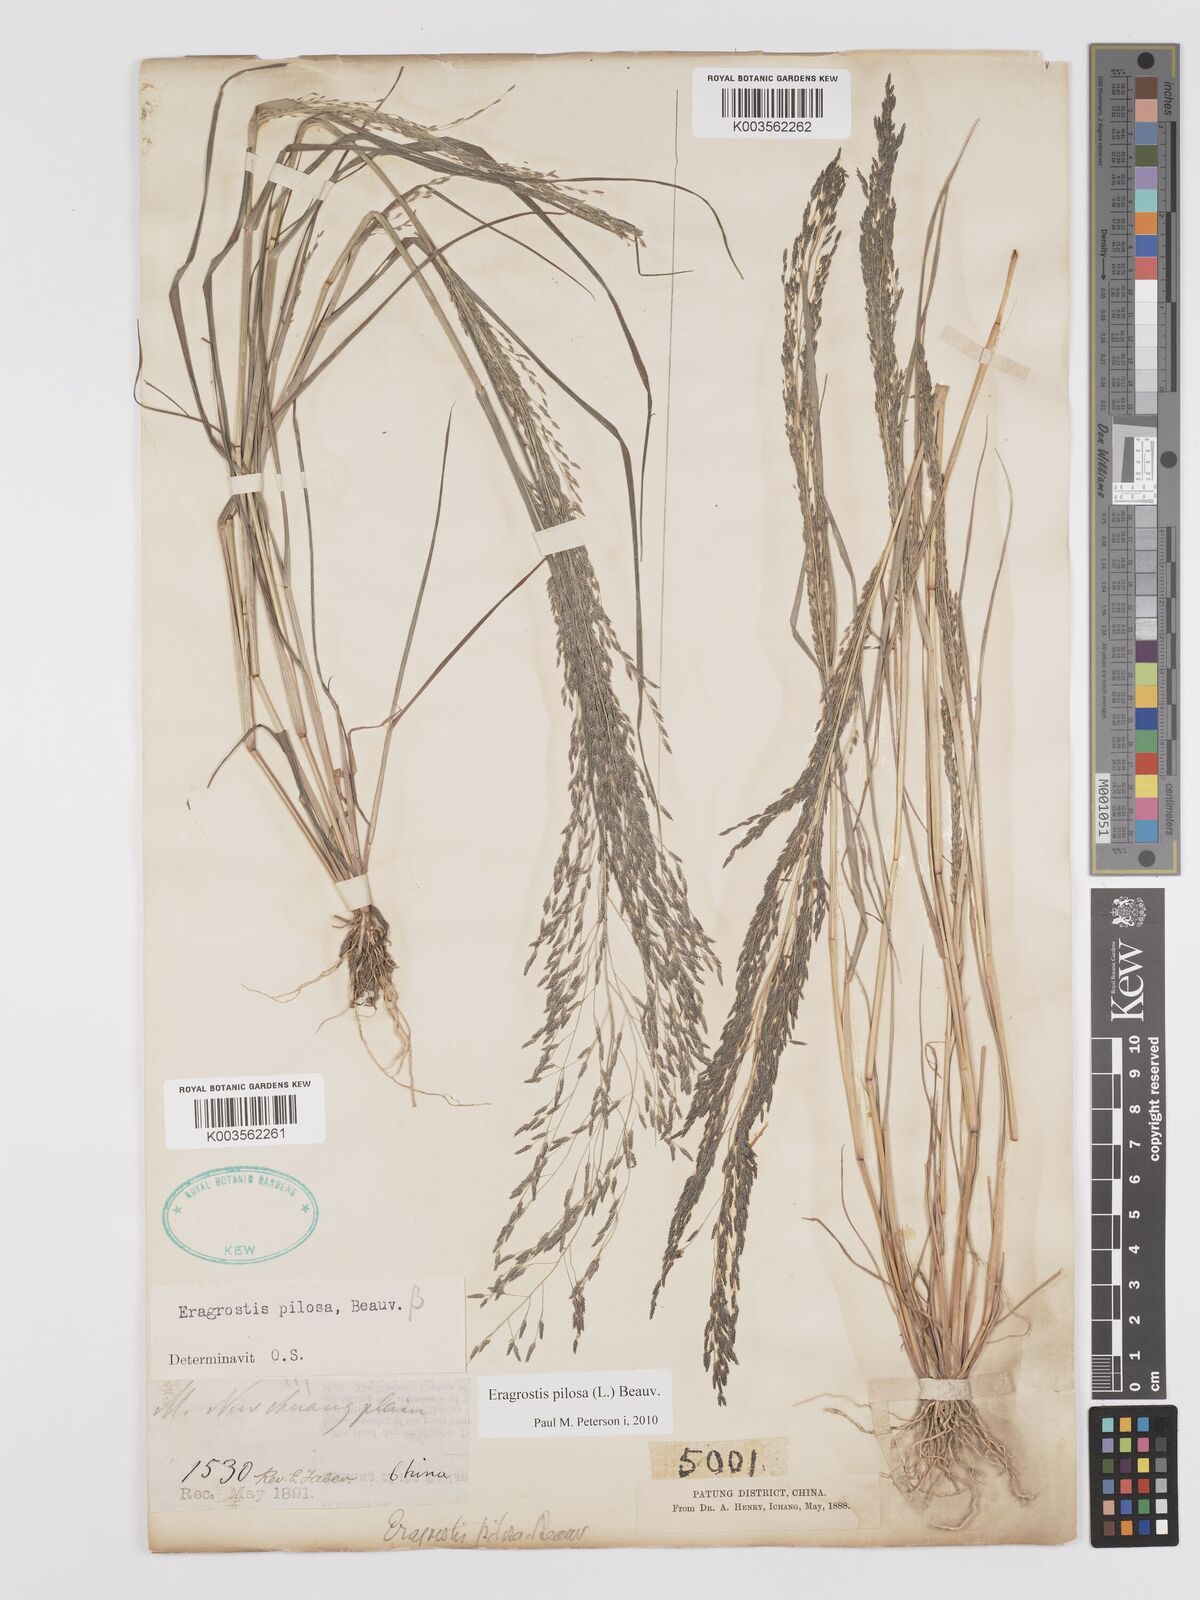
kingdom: Plantae
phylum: Tracheophyta
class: Liliopsida
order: Poales
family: Poaceae
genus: Eragrostis
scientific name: Eragrostis pilosa
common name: Indian lovegrass
